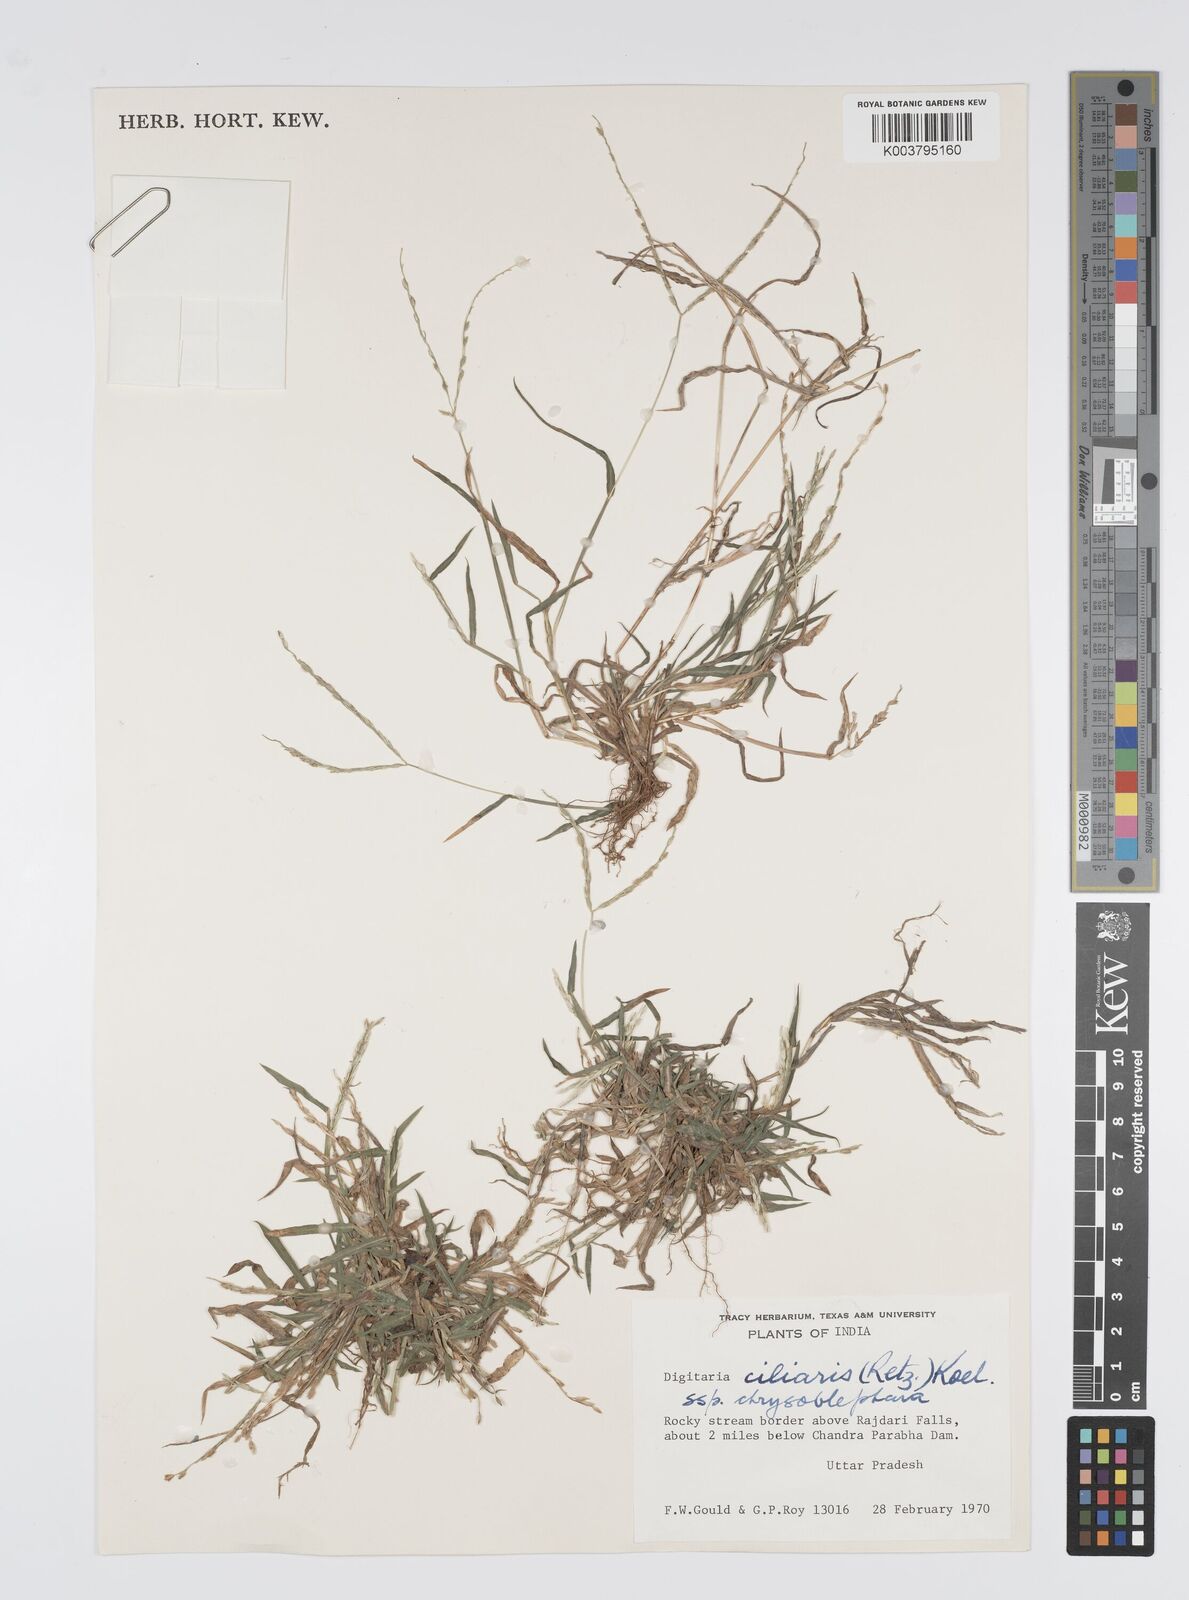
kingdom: Plantae
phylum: Tracheophyta
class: Liliopsida
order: Poales
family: Poaceae
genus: Digitaria
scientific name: Digitaria ciliaris
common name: Tropical finger-grass
